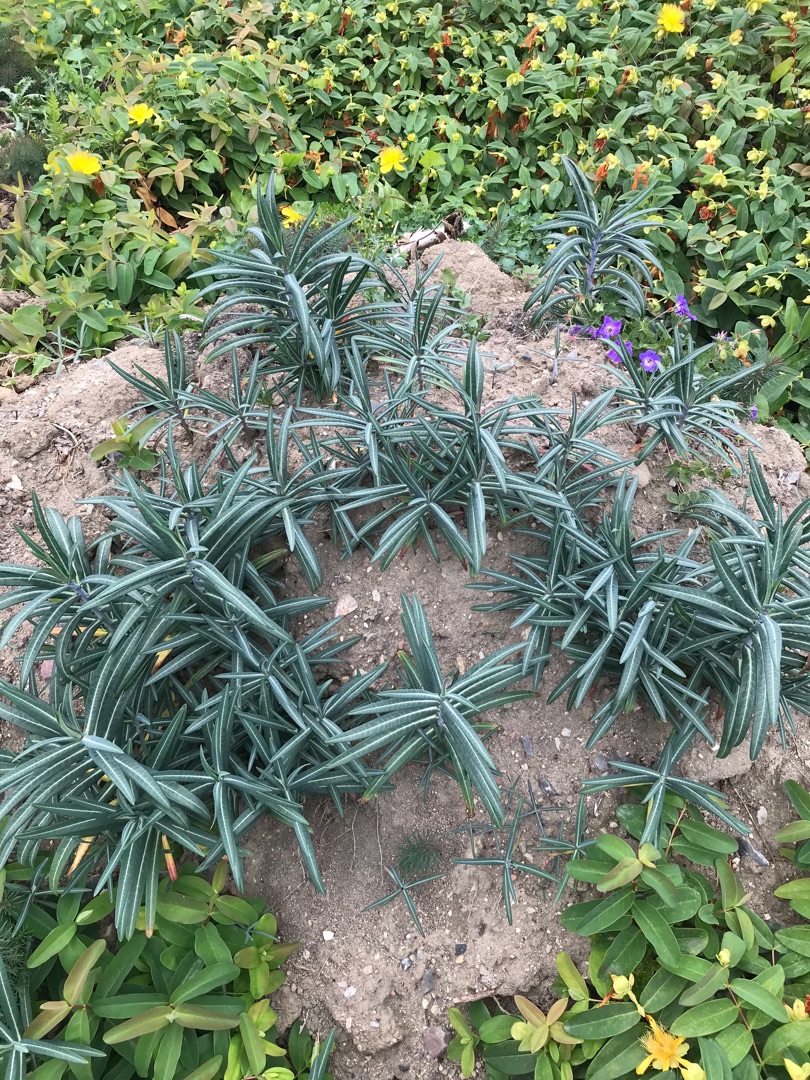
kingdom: Plantae
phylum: Tracheophyta
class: Magnoliopsida
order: Malpighiales
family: Euphorbiaceae
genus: Euphorbia
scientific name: Euphorbia lathyris
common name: Kors-vortemælk
